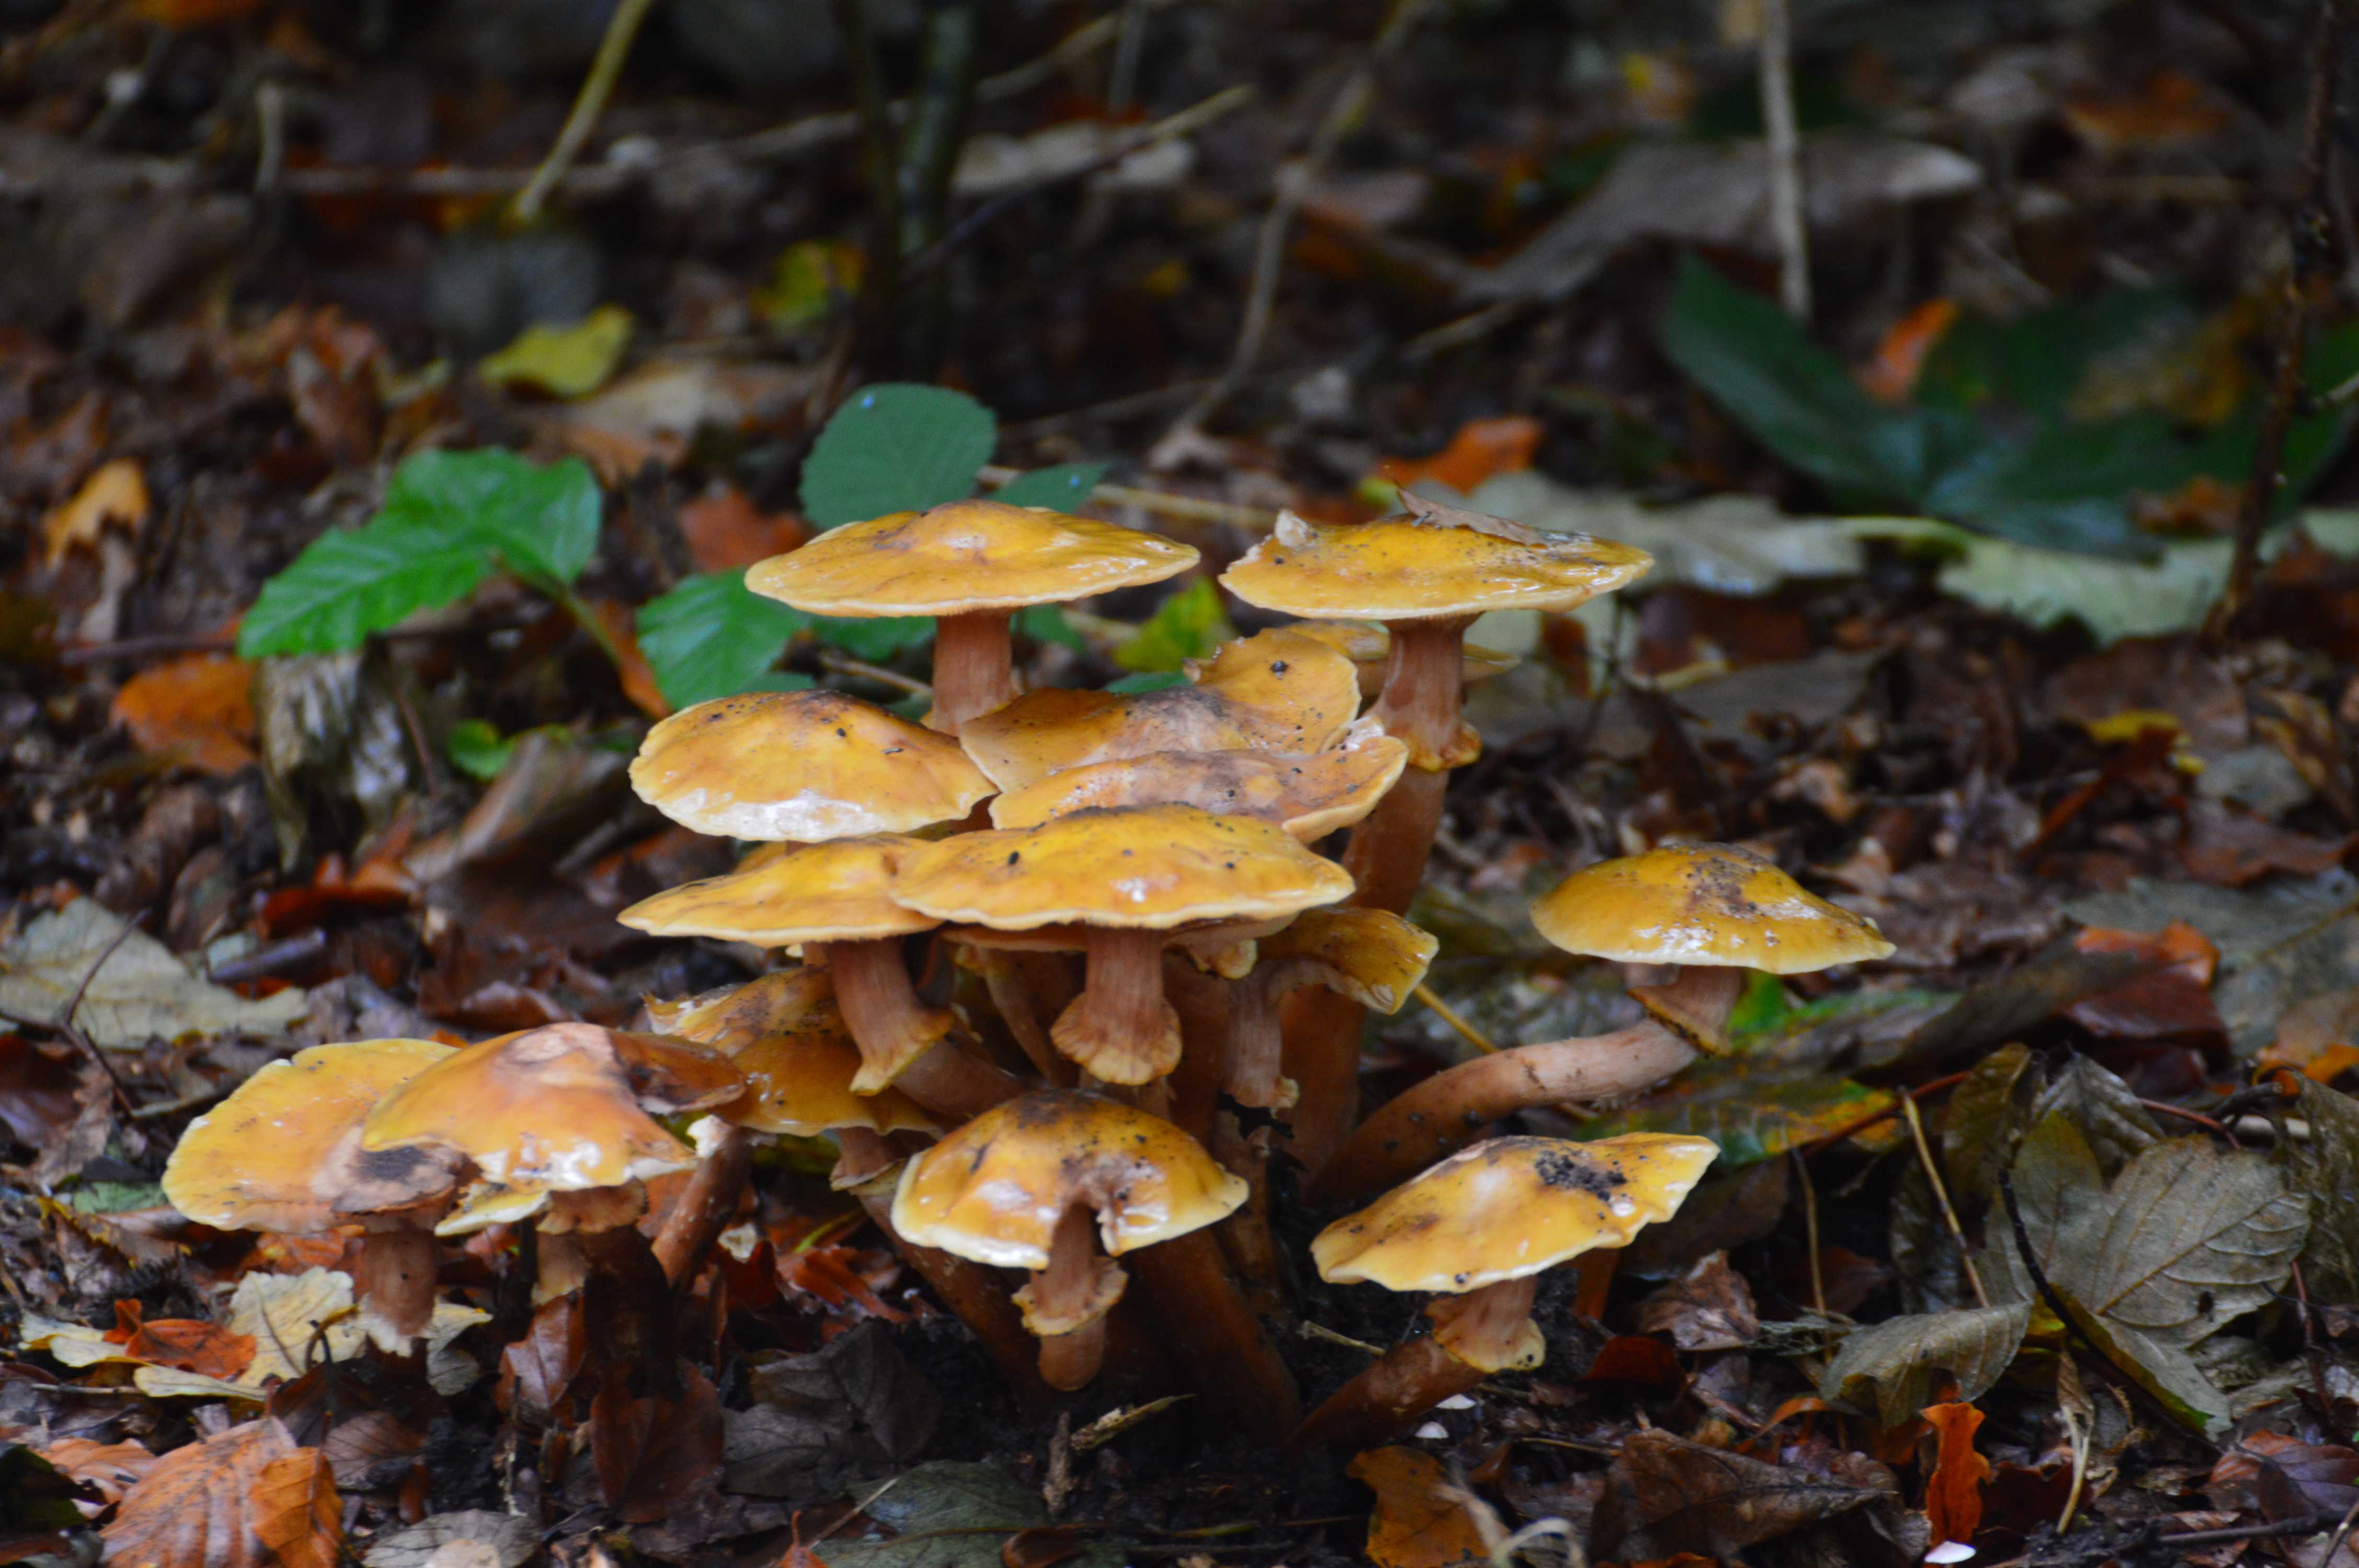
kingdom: Fungi
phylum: Basidiomycota
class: Agaricomycetes
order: Agaricales
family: Physalacriaceae
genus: Armillaria
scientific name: Armillaria mellea
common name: ægte honningsvamp
